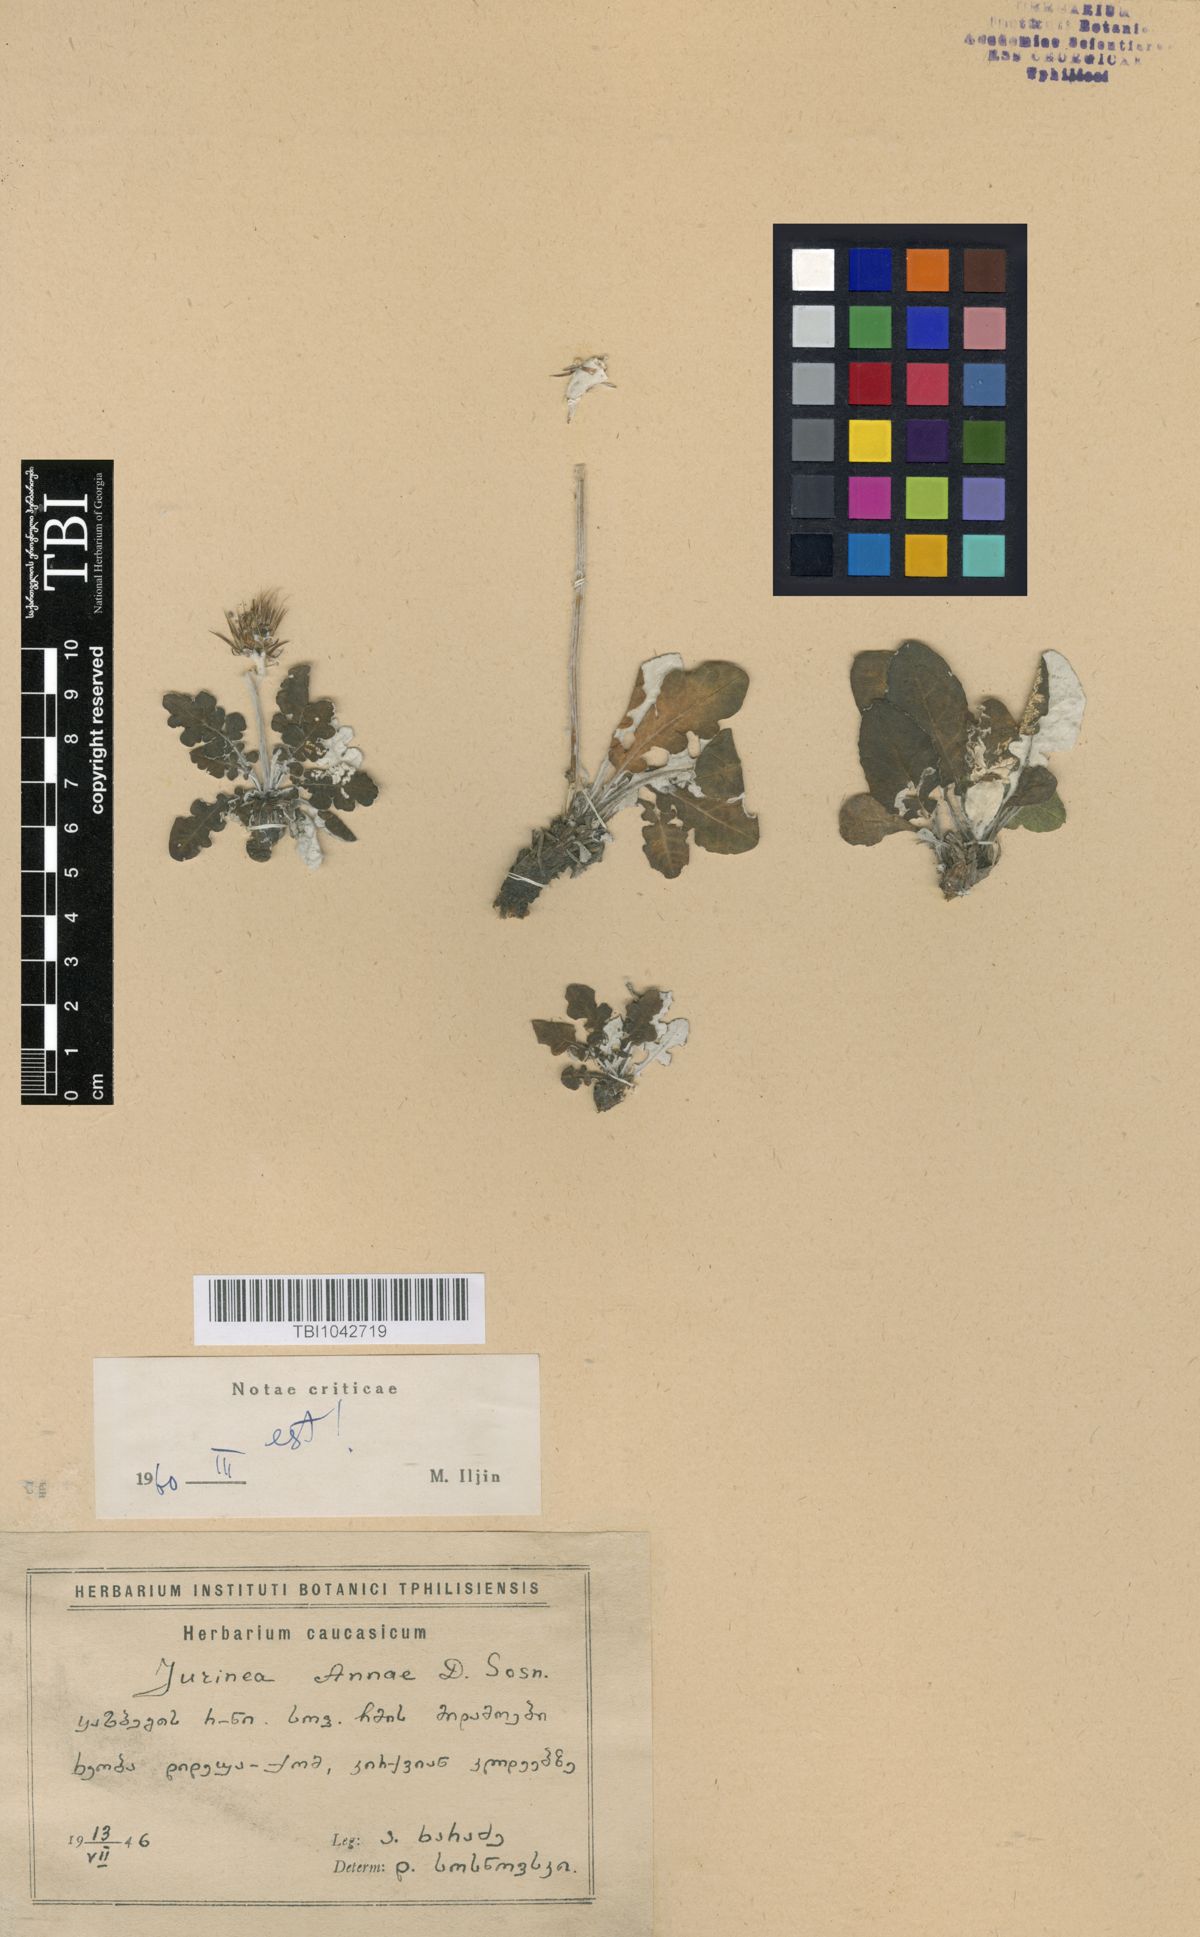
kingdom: Plantae
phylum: Tracheophyta
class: Magnoliopsida
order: Asterales
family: Asteraceae
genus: Jurinea
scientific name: Jurinea annae
